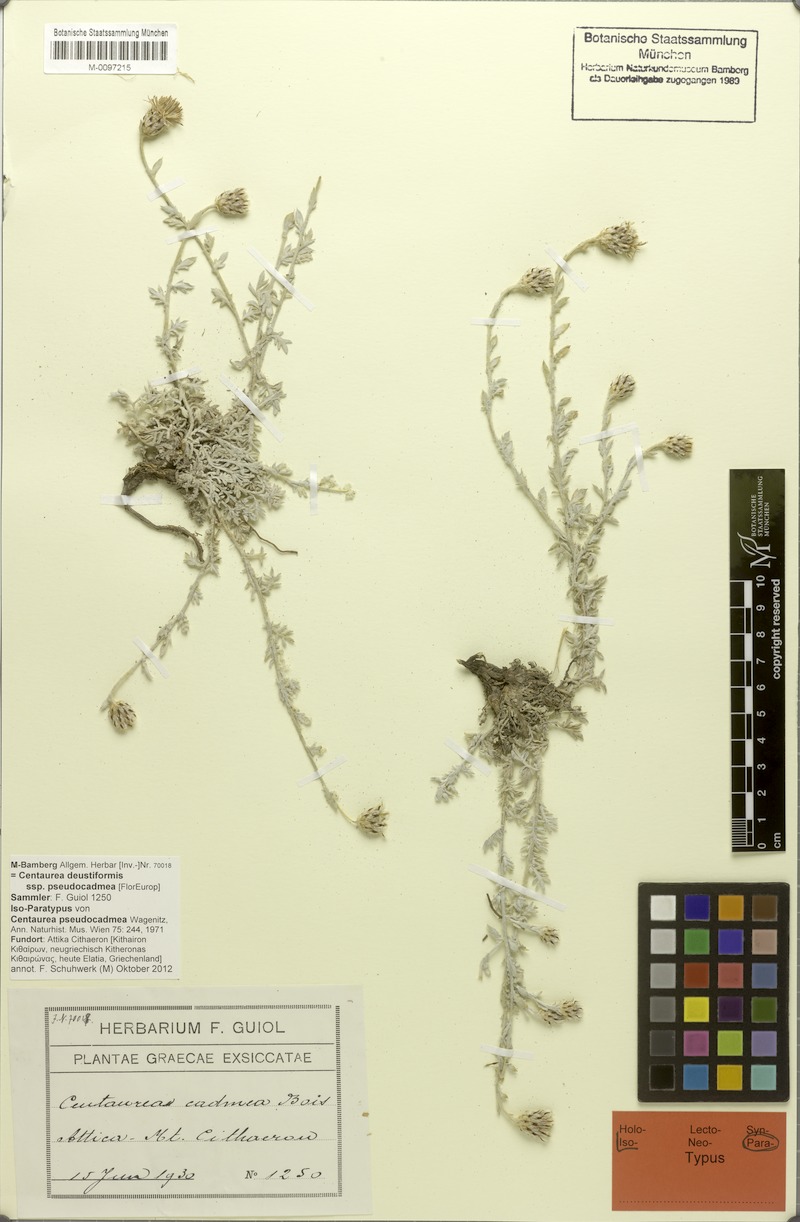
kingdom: Plantae
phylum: Tracheophyta
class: Magnoliopsida
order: Asterales
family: Asteraceae
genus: Centaurea
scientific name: Centaurea pseudocadmea
